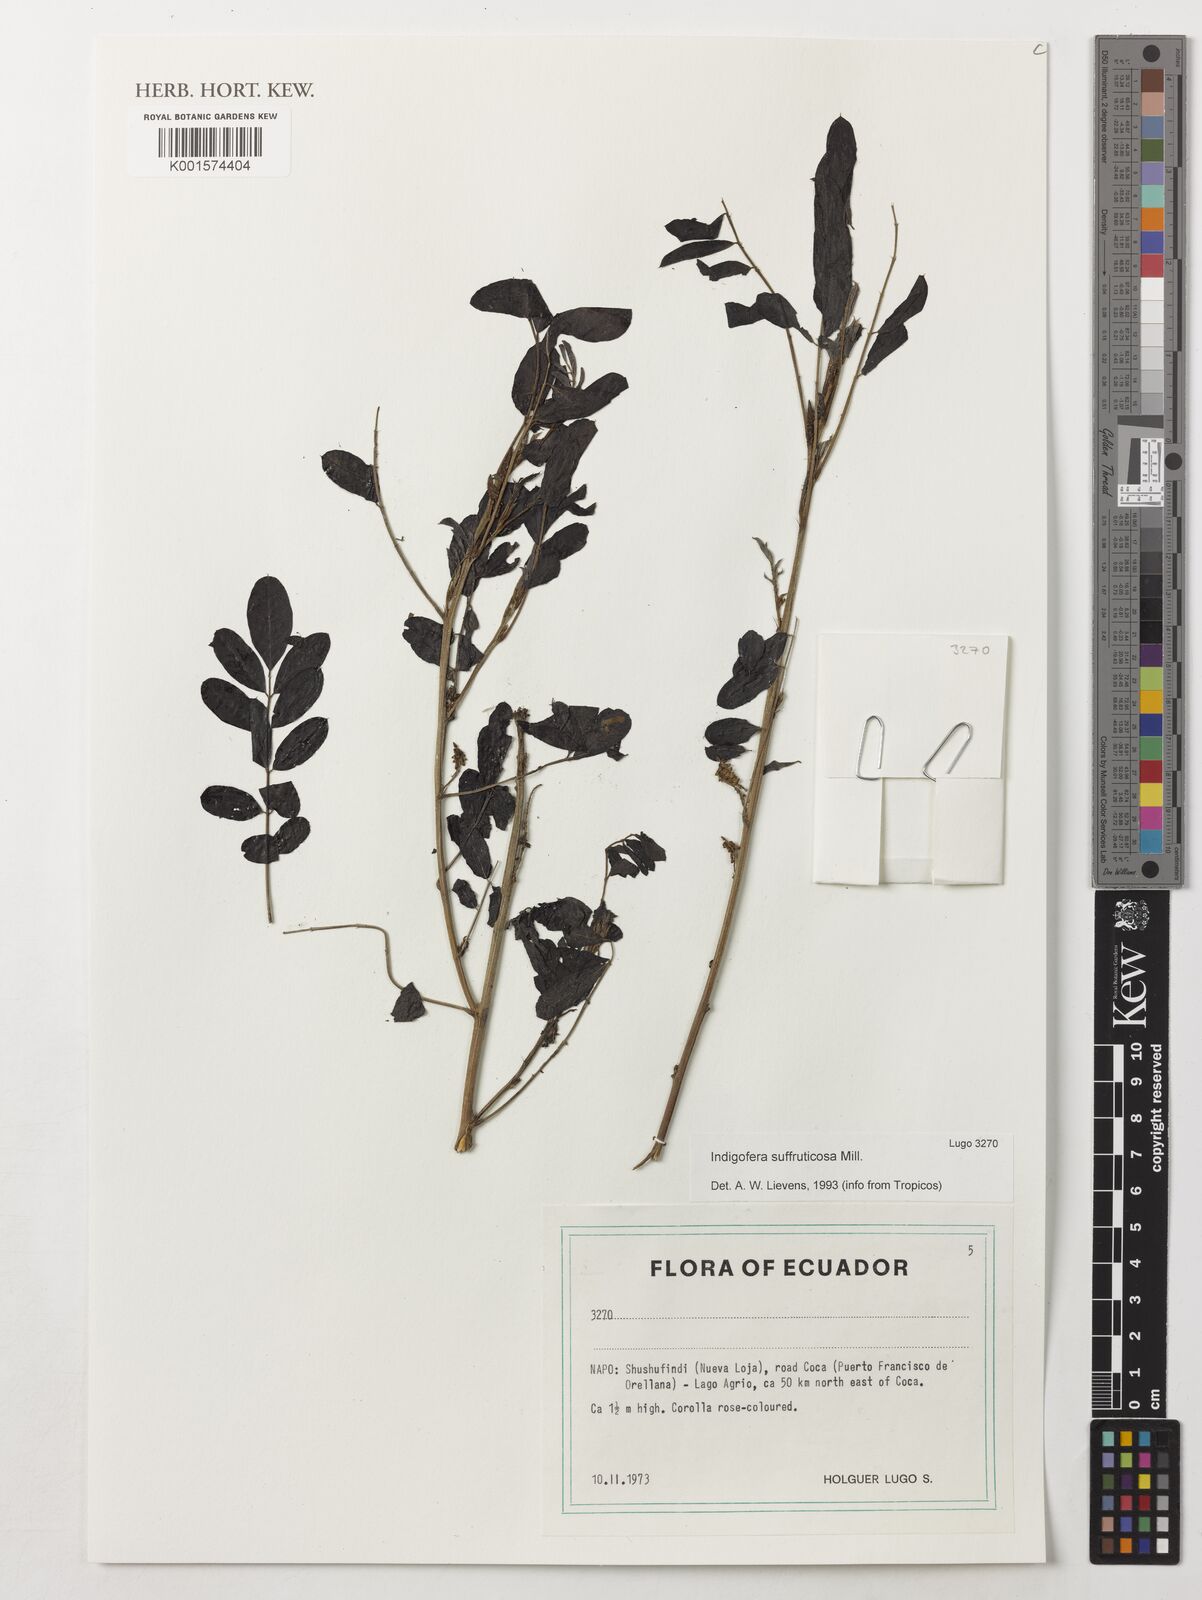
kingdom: Plantae
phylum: Tracheophyta
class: Magnoliopsida
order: Fabales
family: Fabaceae
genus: Indigofera
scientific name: Indigofera suffruticosa
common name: Anil de pasto
